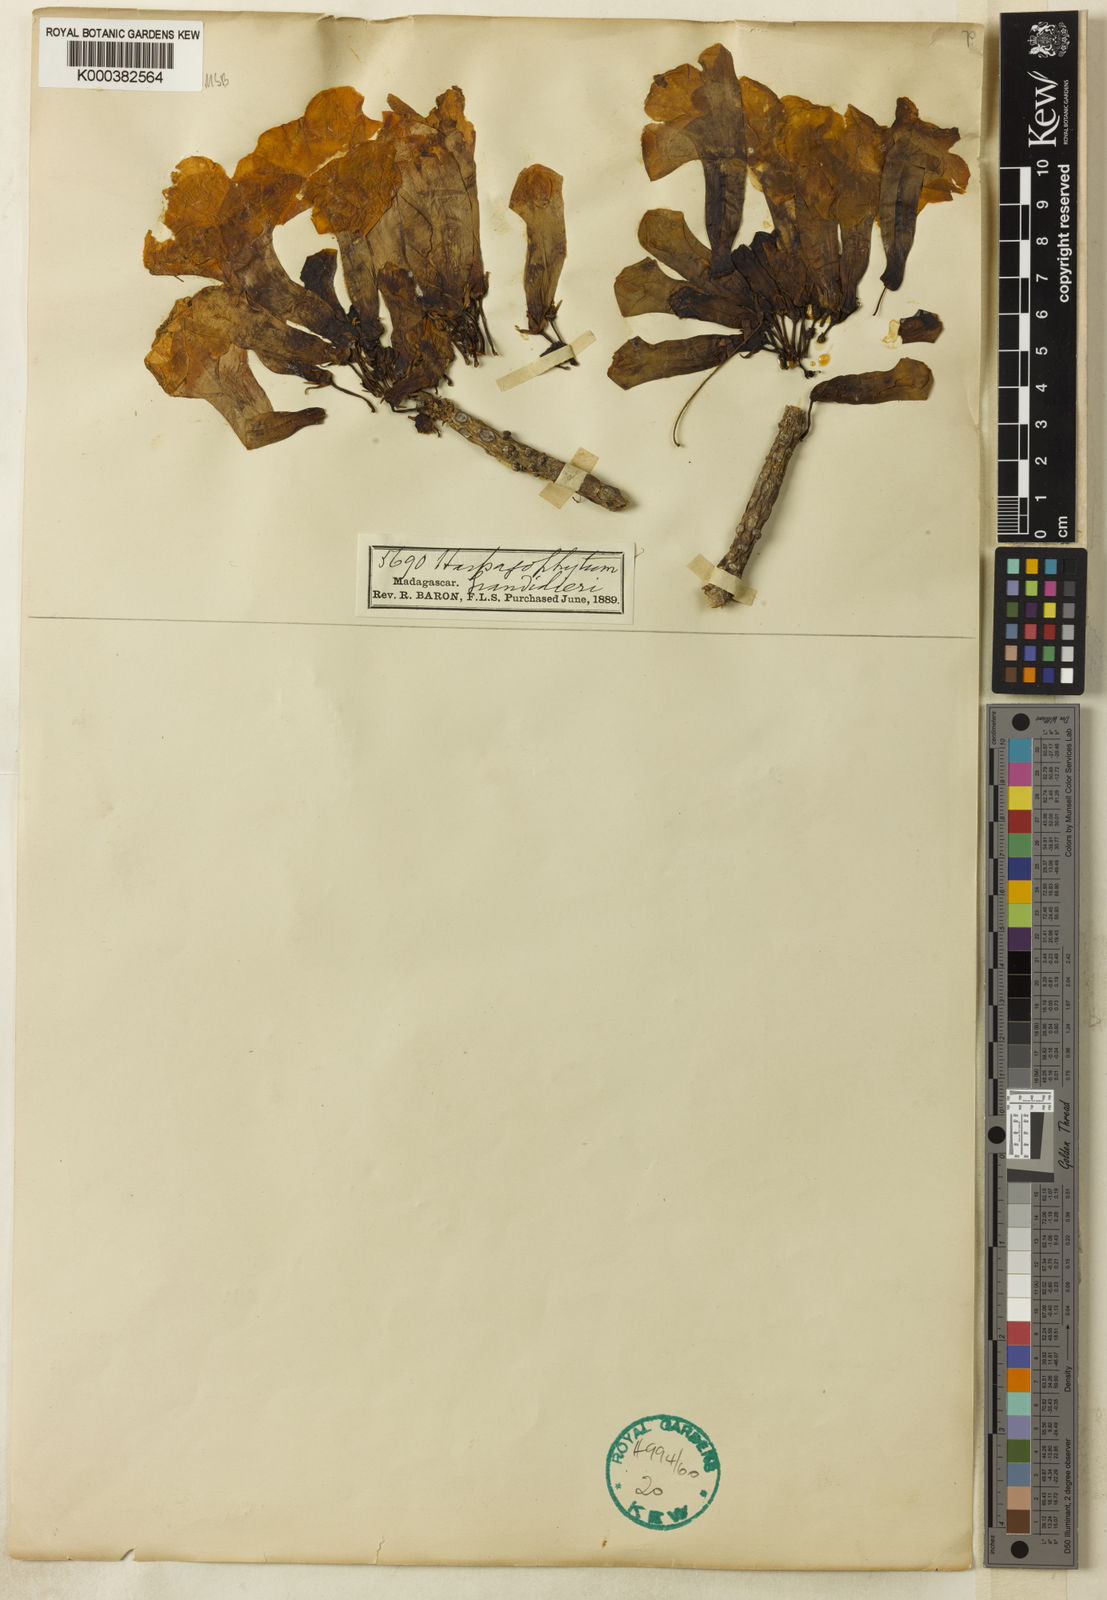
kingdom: Plantae
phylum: Tracheophyta
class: Magnoliopsida
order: Lamiales
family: Pedaliaceae
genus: Uncarina
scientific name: Uncarina
